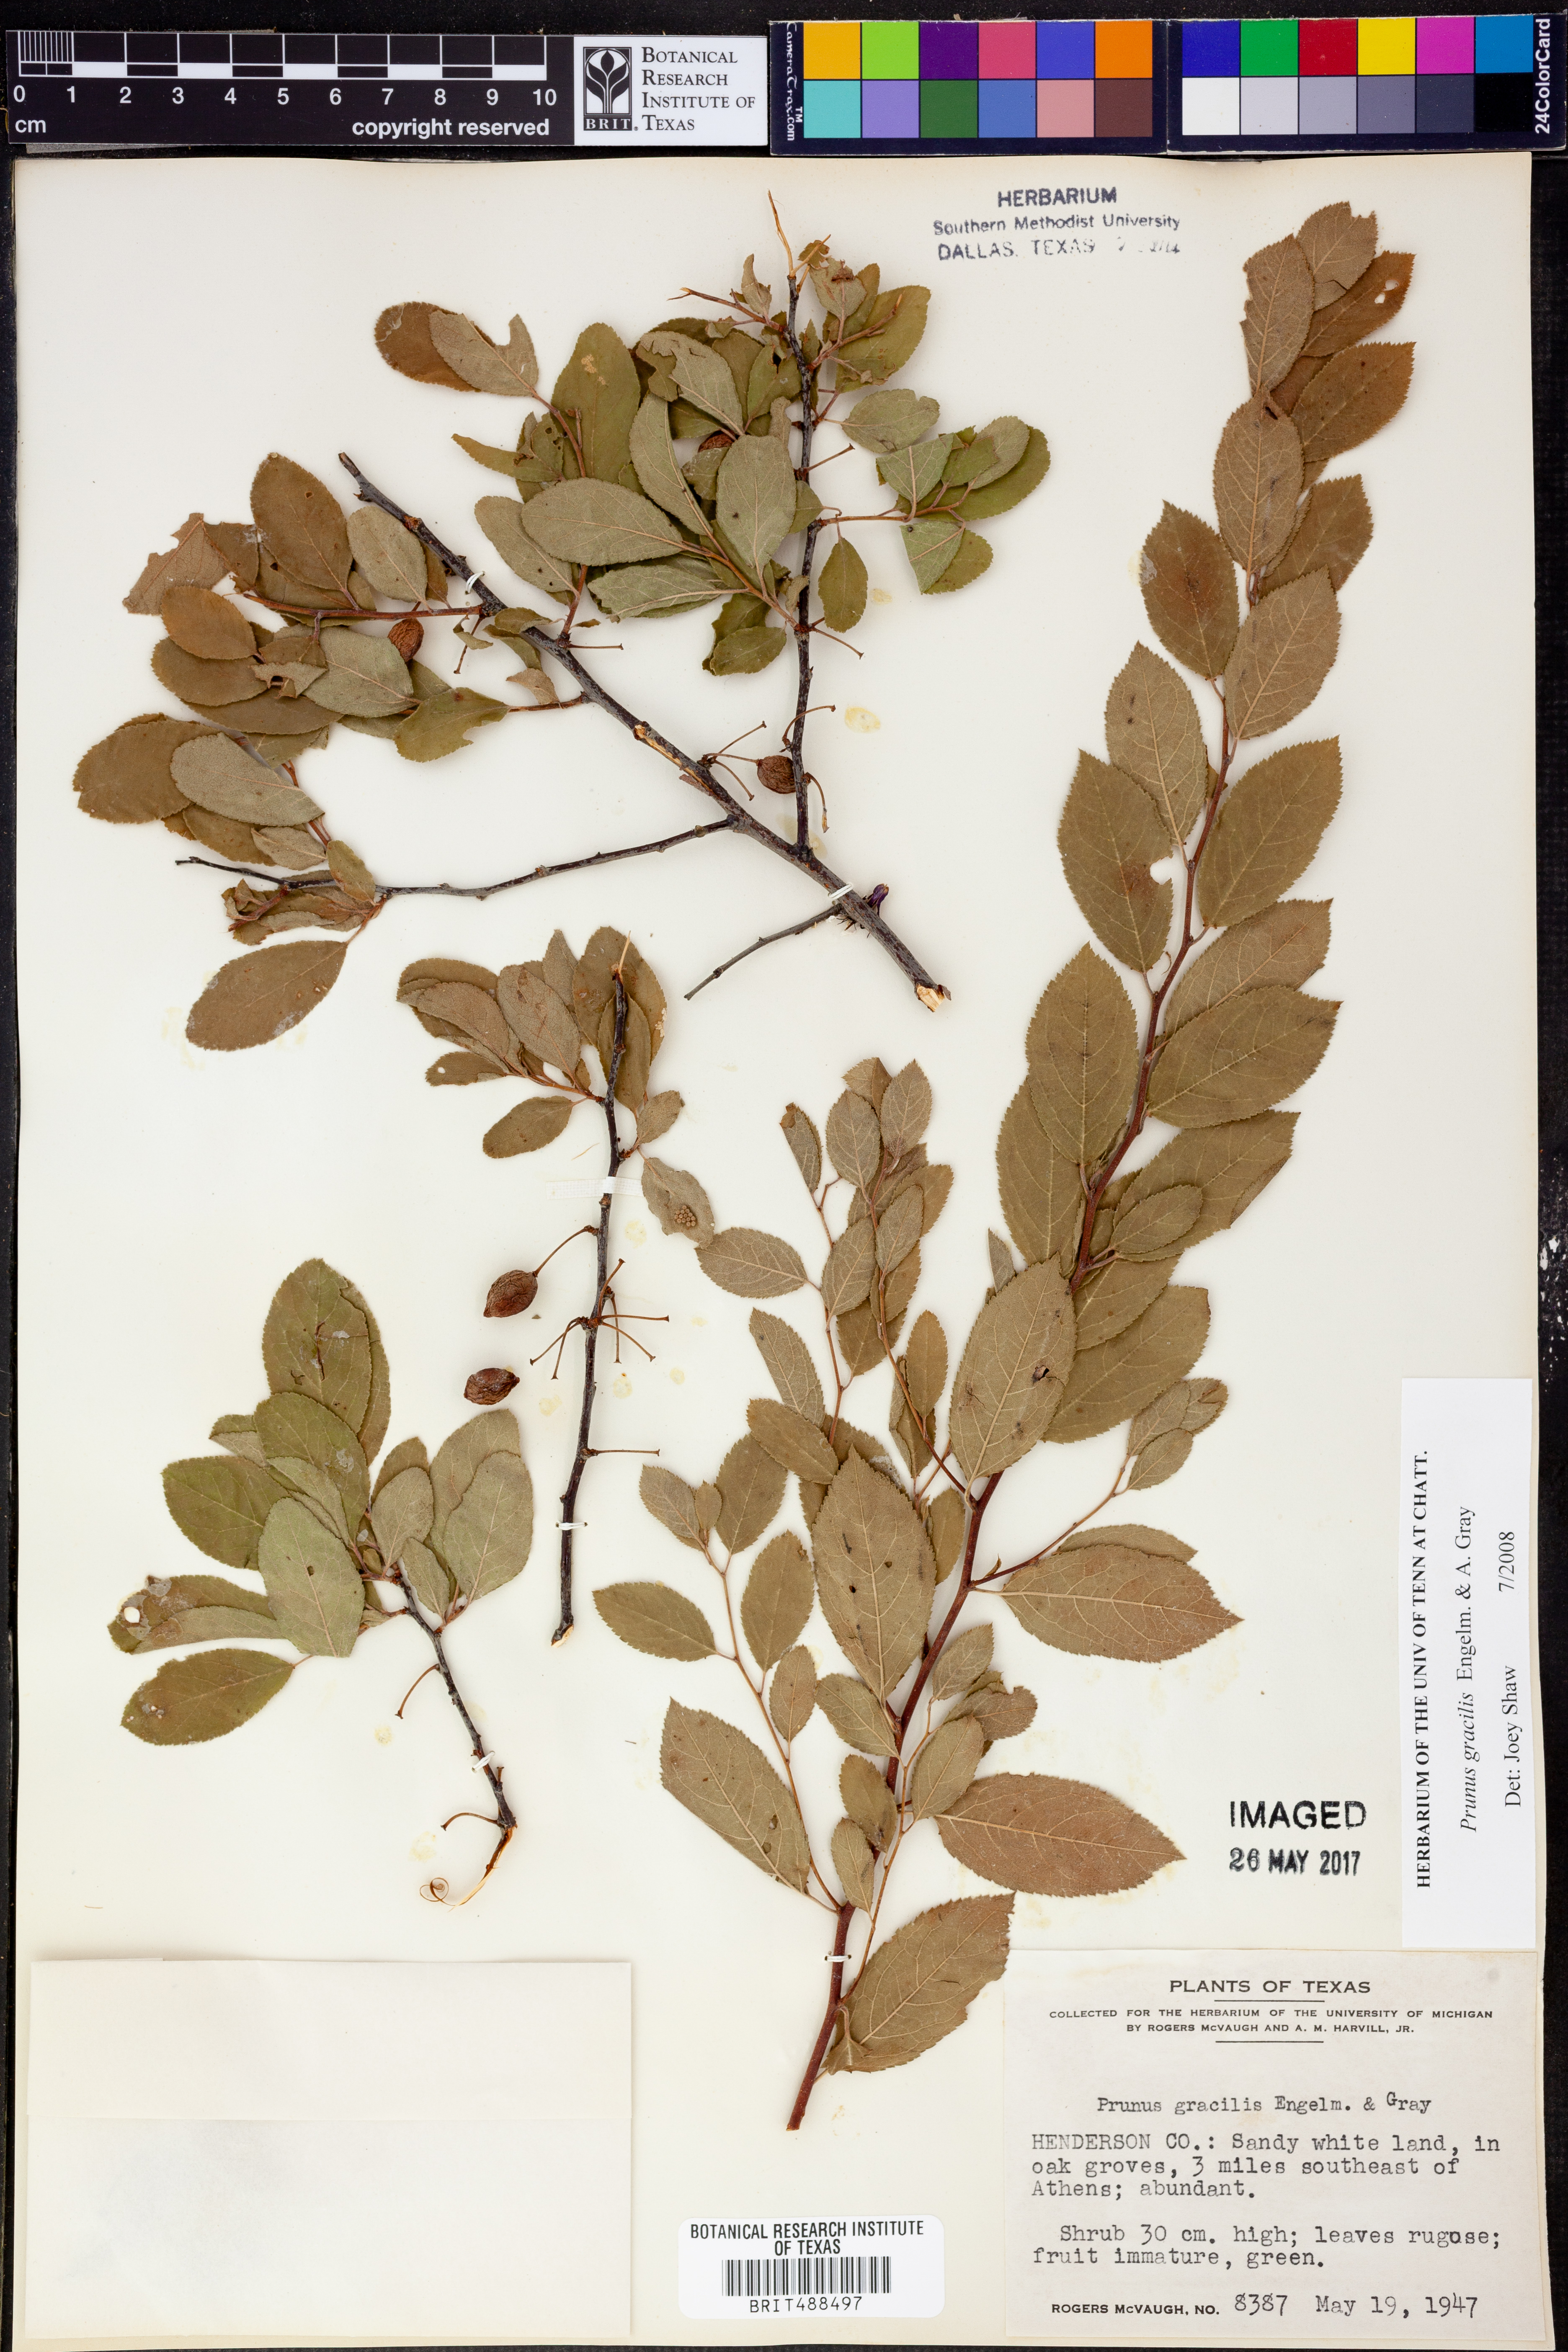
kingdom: Plantae
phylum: Tracheophyta
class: Magnoliopsida
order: Rosales
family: Rosaceae
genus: Prunus
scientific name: Prunus gracilis
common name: Oklahoma plum
